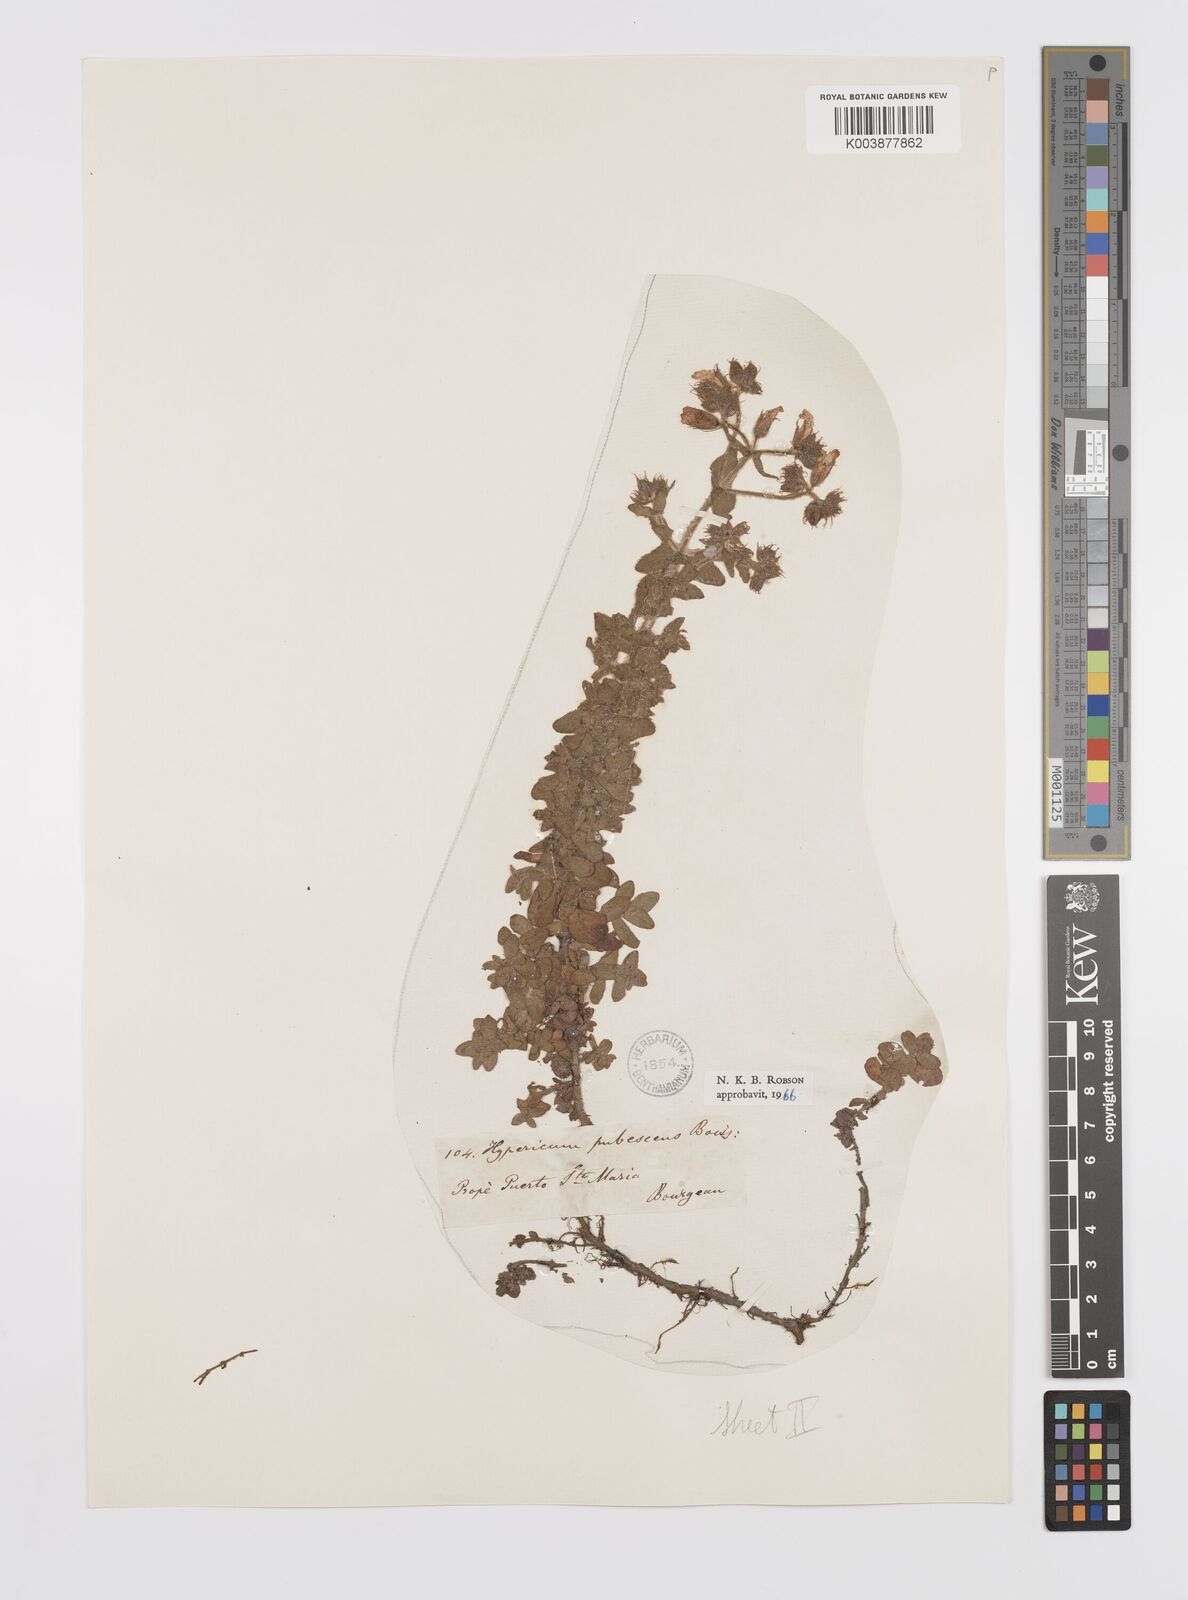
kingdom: Plantae
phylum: Tracheophyta
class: Magnoliopsida
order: Malpighiales
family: Hypericaceae
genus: Hypericum
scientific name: Hypericum pubescens
